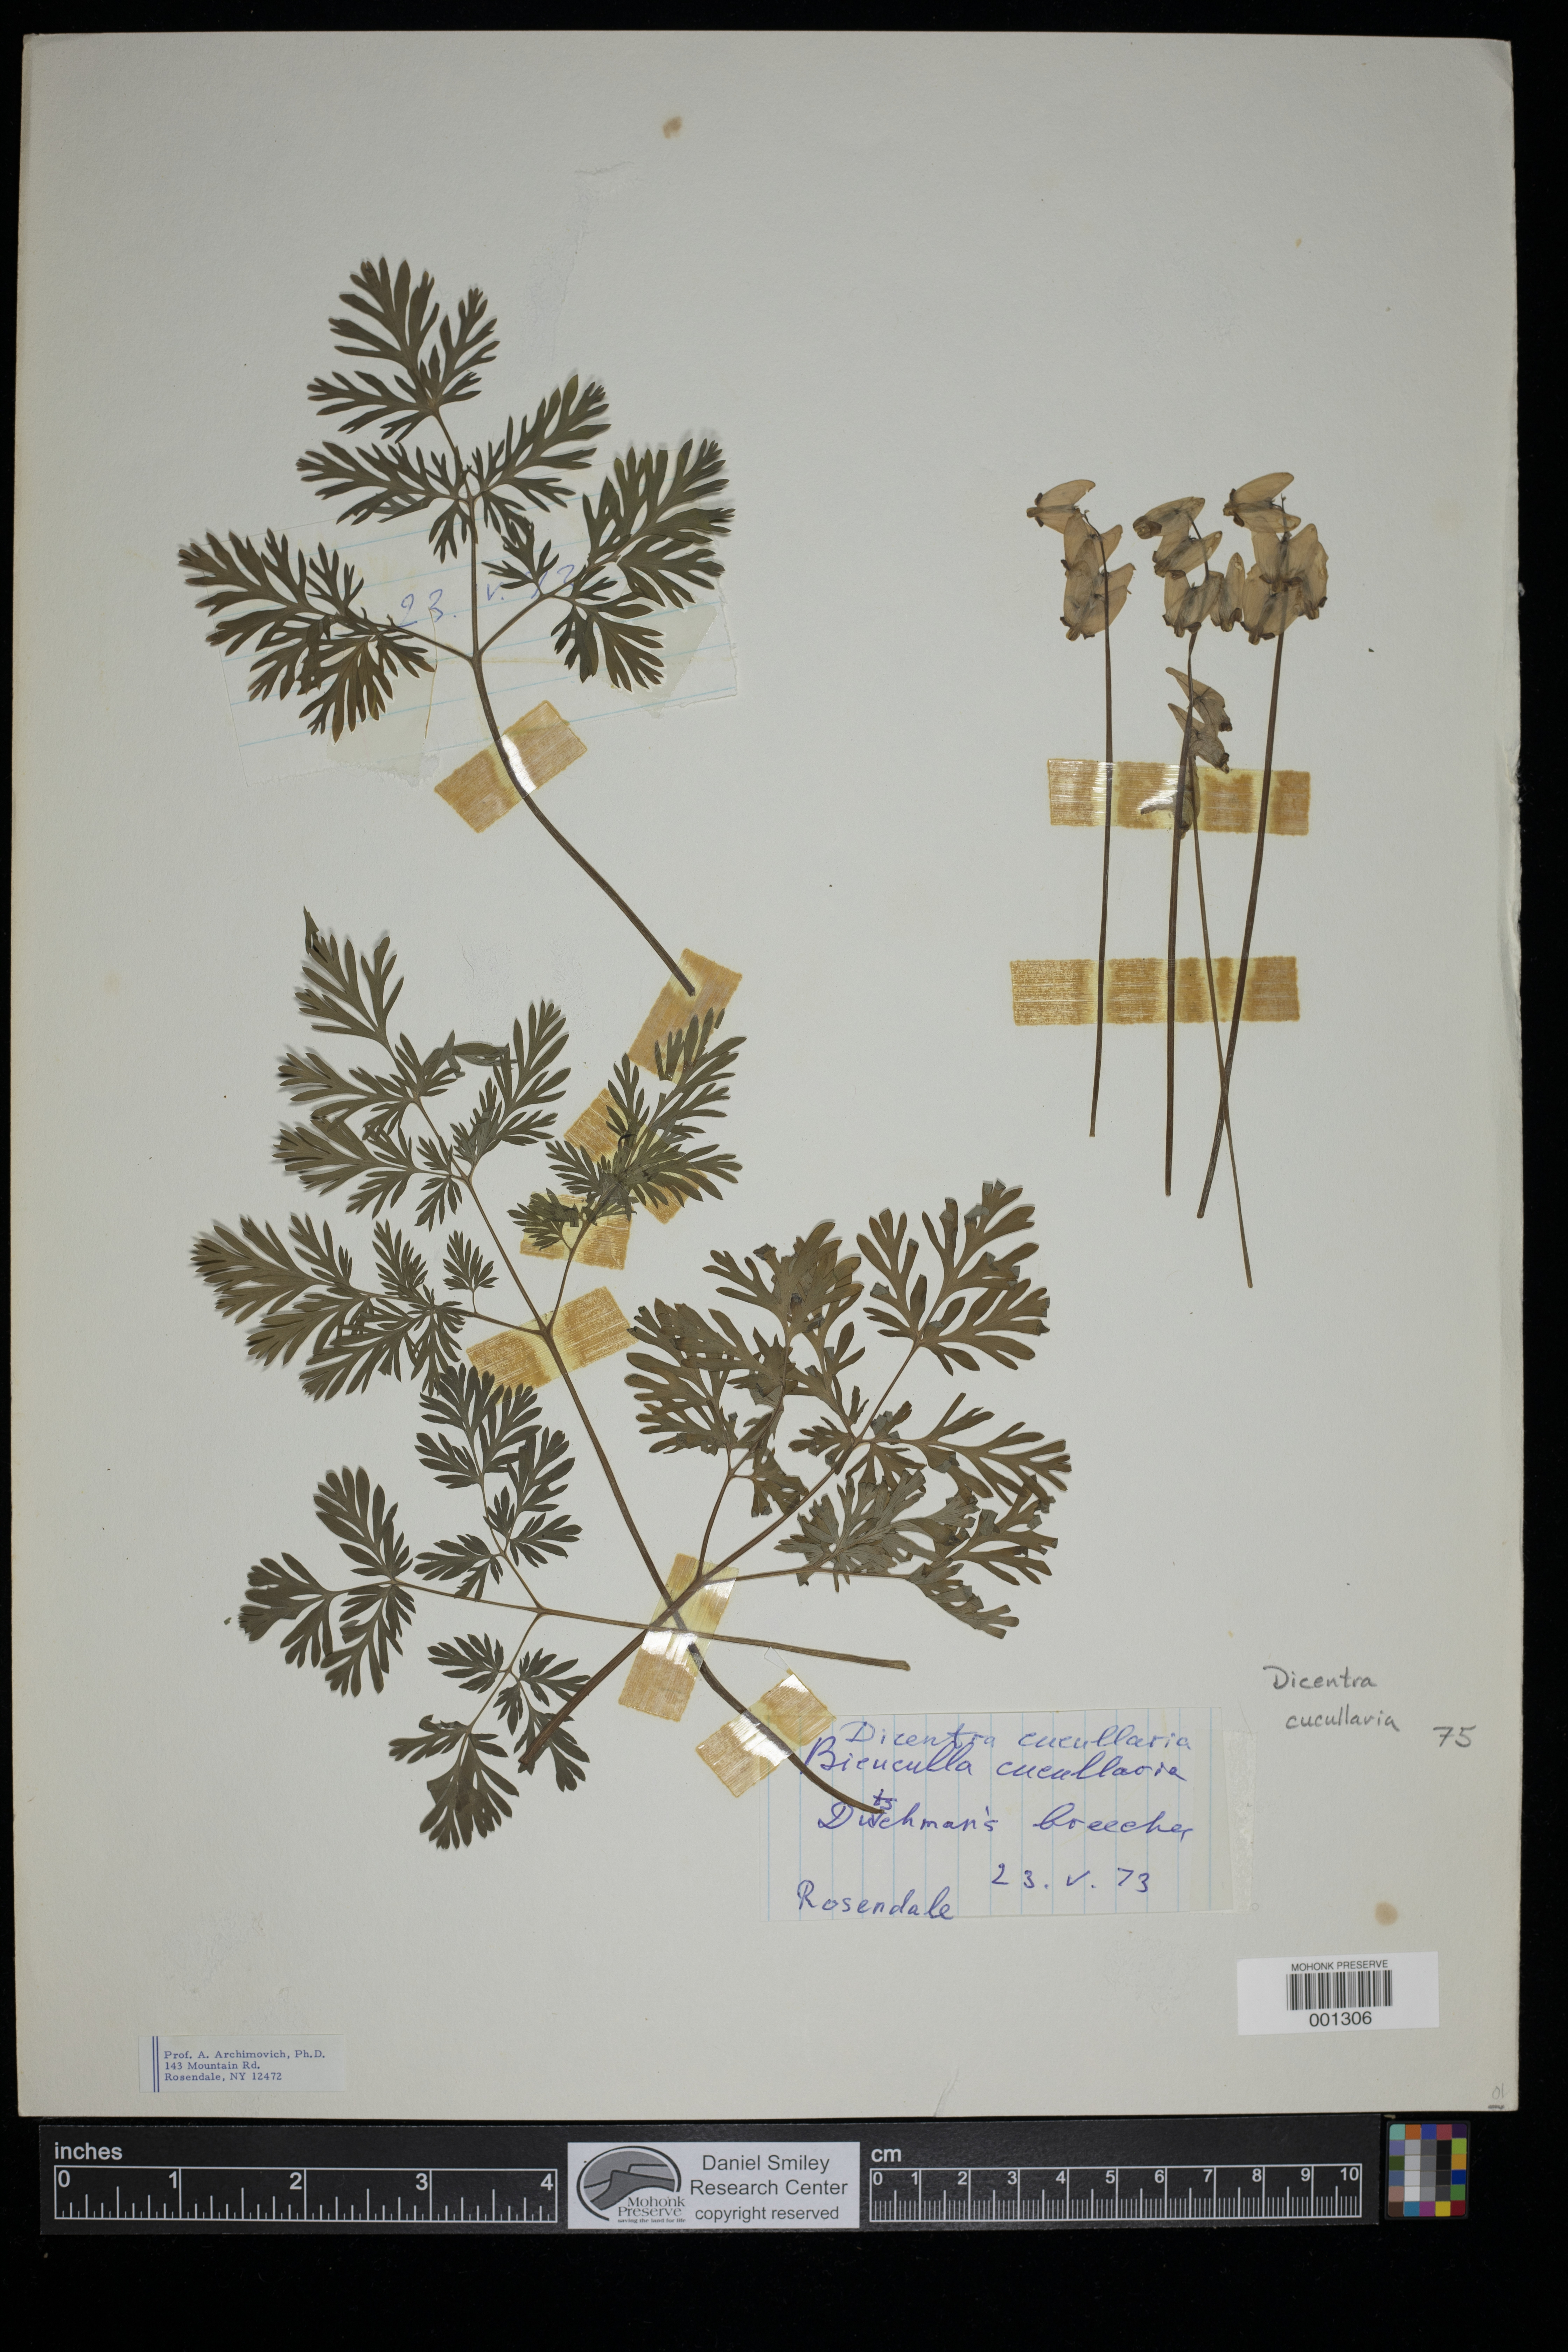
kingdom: Plantae
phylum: Tracheophyta
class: Magnoliopsida
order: Ranunculales
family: Papaveraceae
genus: Dicentra
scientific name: Dicentra cucullaria
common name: Dutchman's breeches
